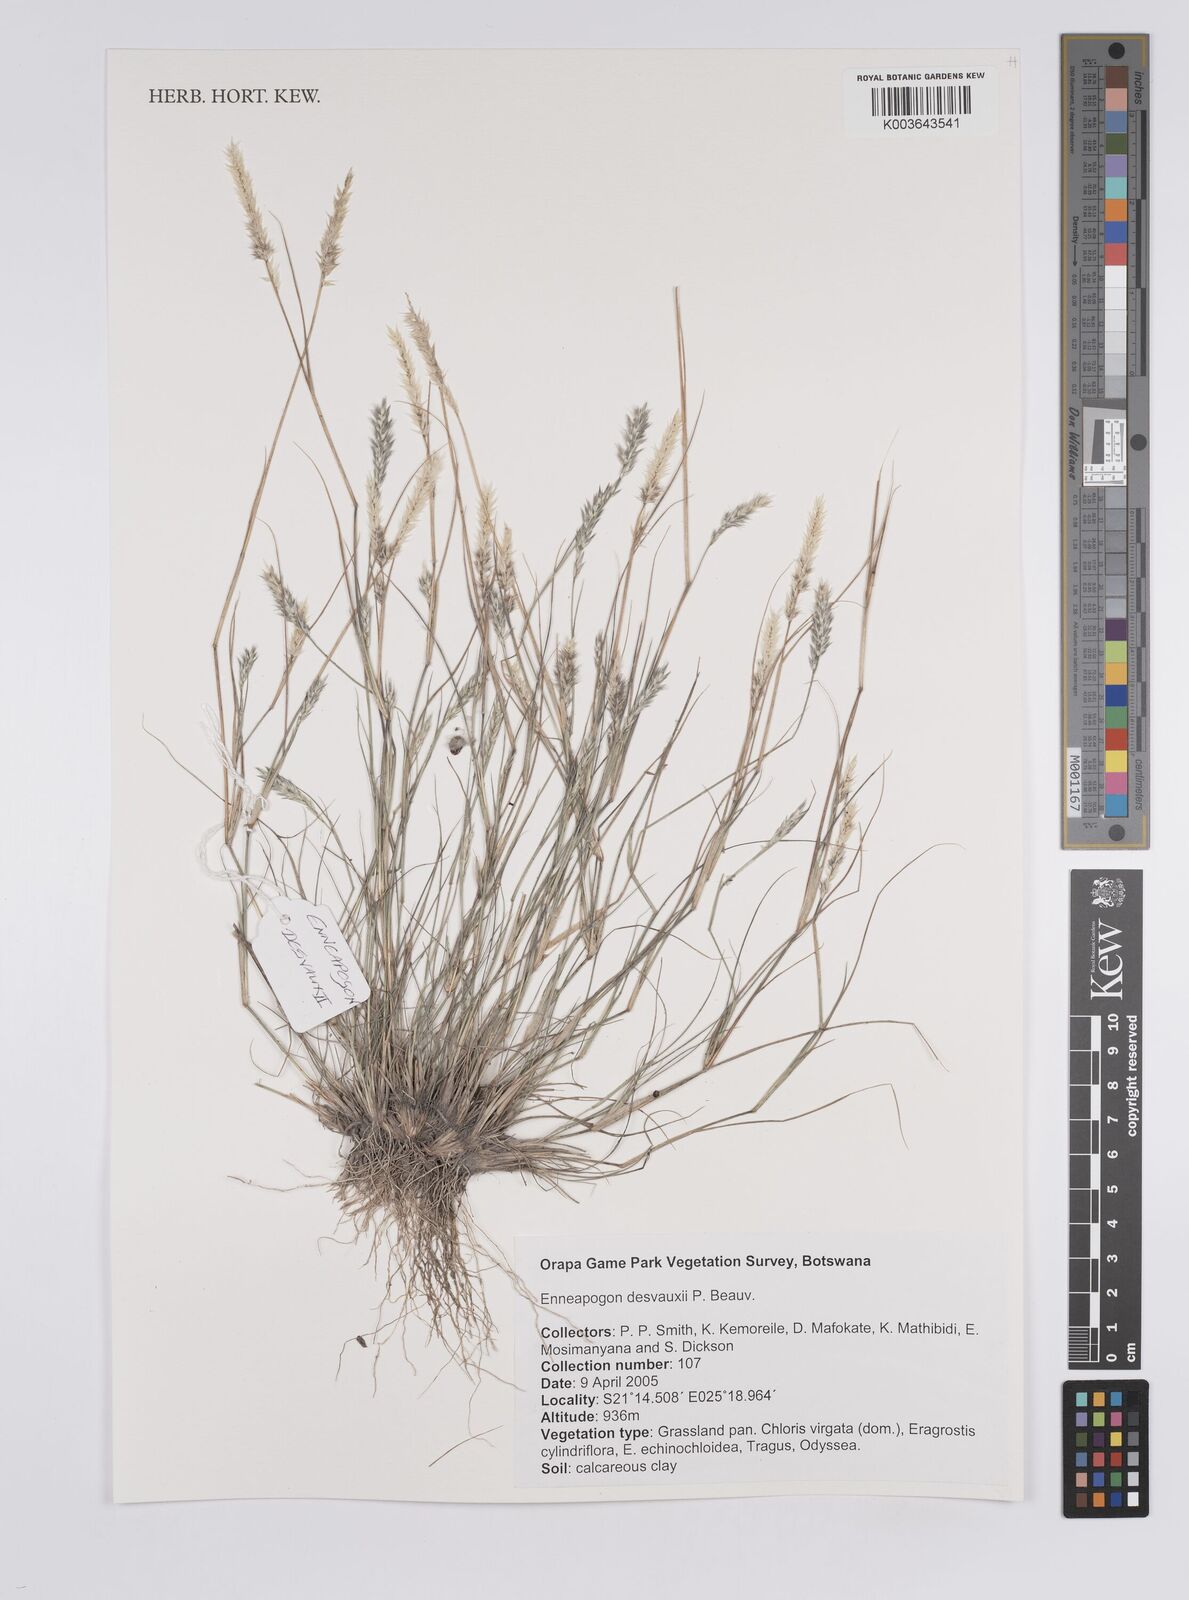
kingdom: Plantae
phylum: Tracheophyta
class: Liliopsida
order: Poales
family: Poaceae
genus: Enneapogon
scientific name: Enneapogon desvauxii
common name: Feather pappus grass
